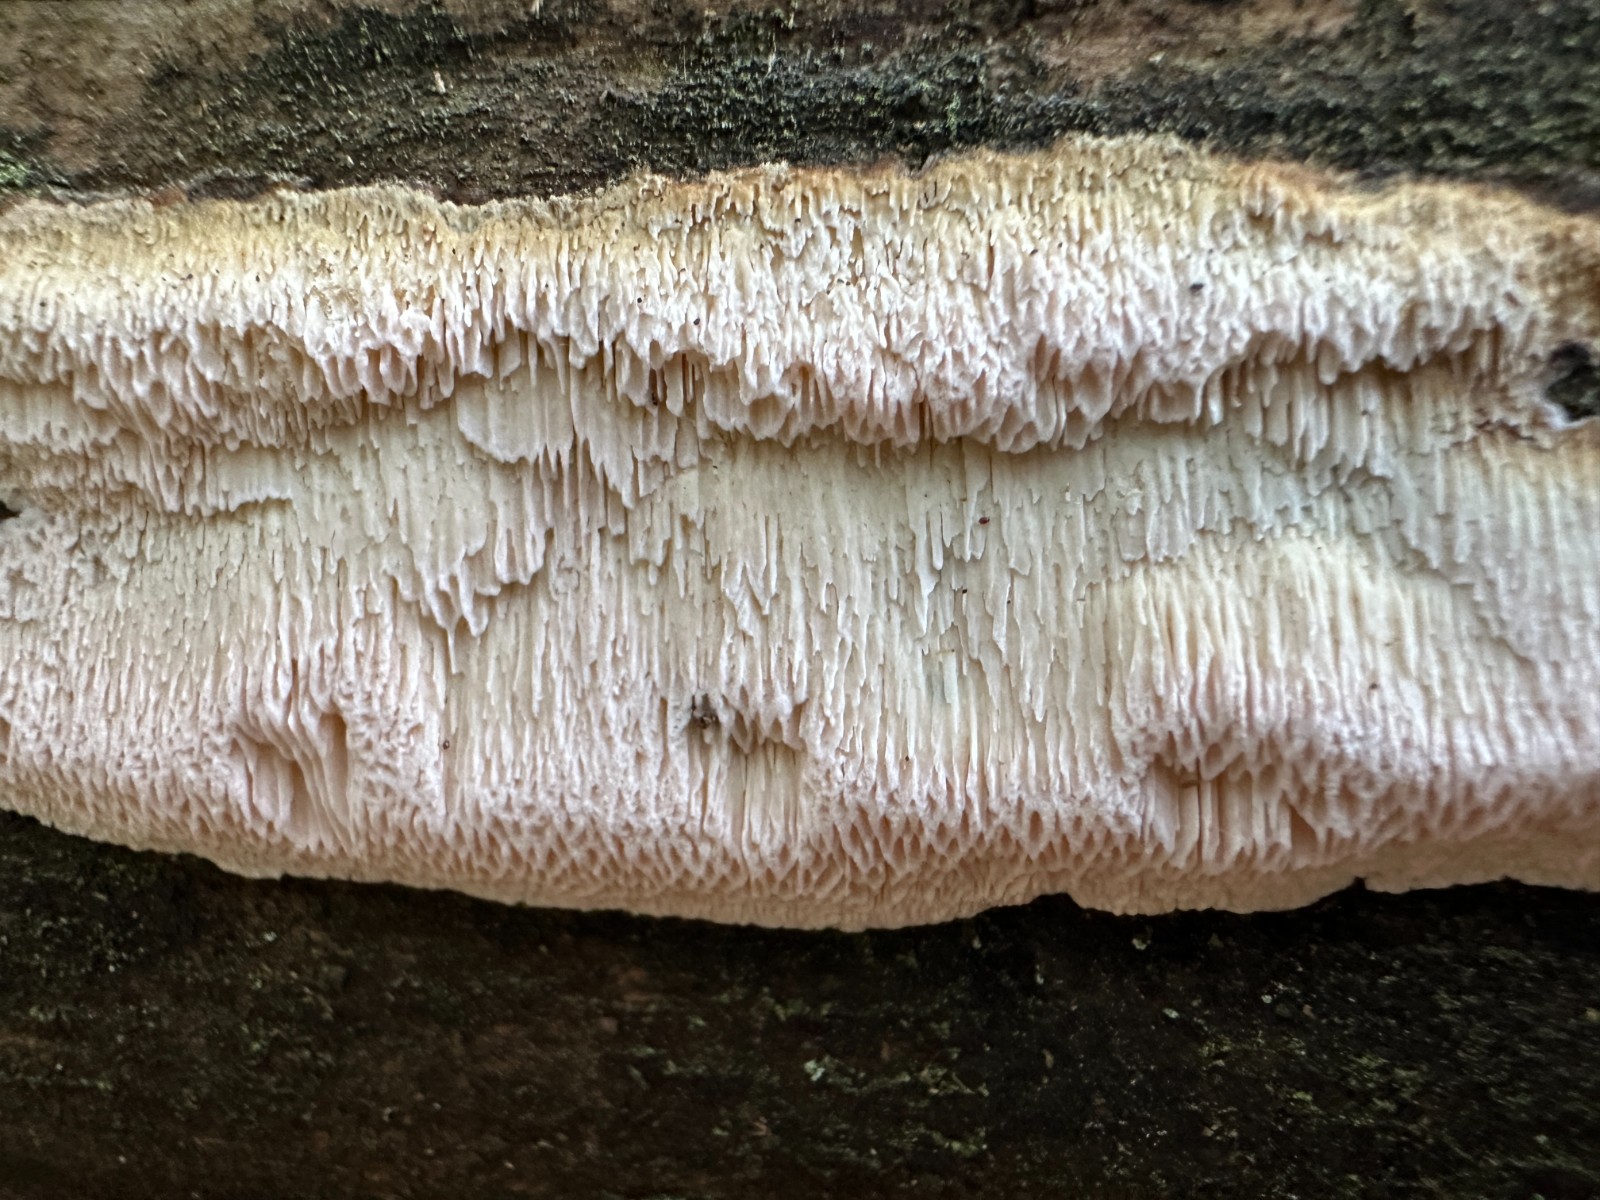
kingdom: Fungi
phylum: Basidiomycota
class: Agaricomycetes
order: Polyporales
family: Polyporaceae
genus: Rhodonia
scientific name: Rhodonia placenta
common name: rosaporesvamp
